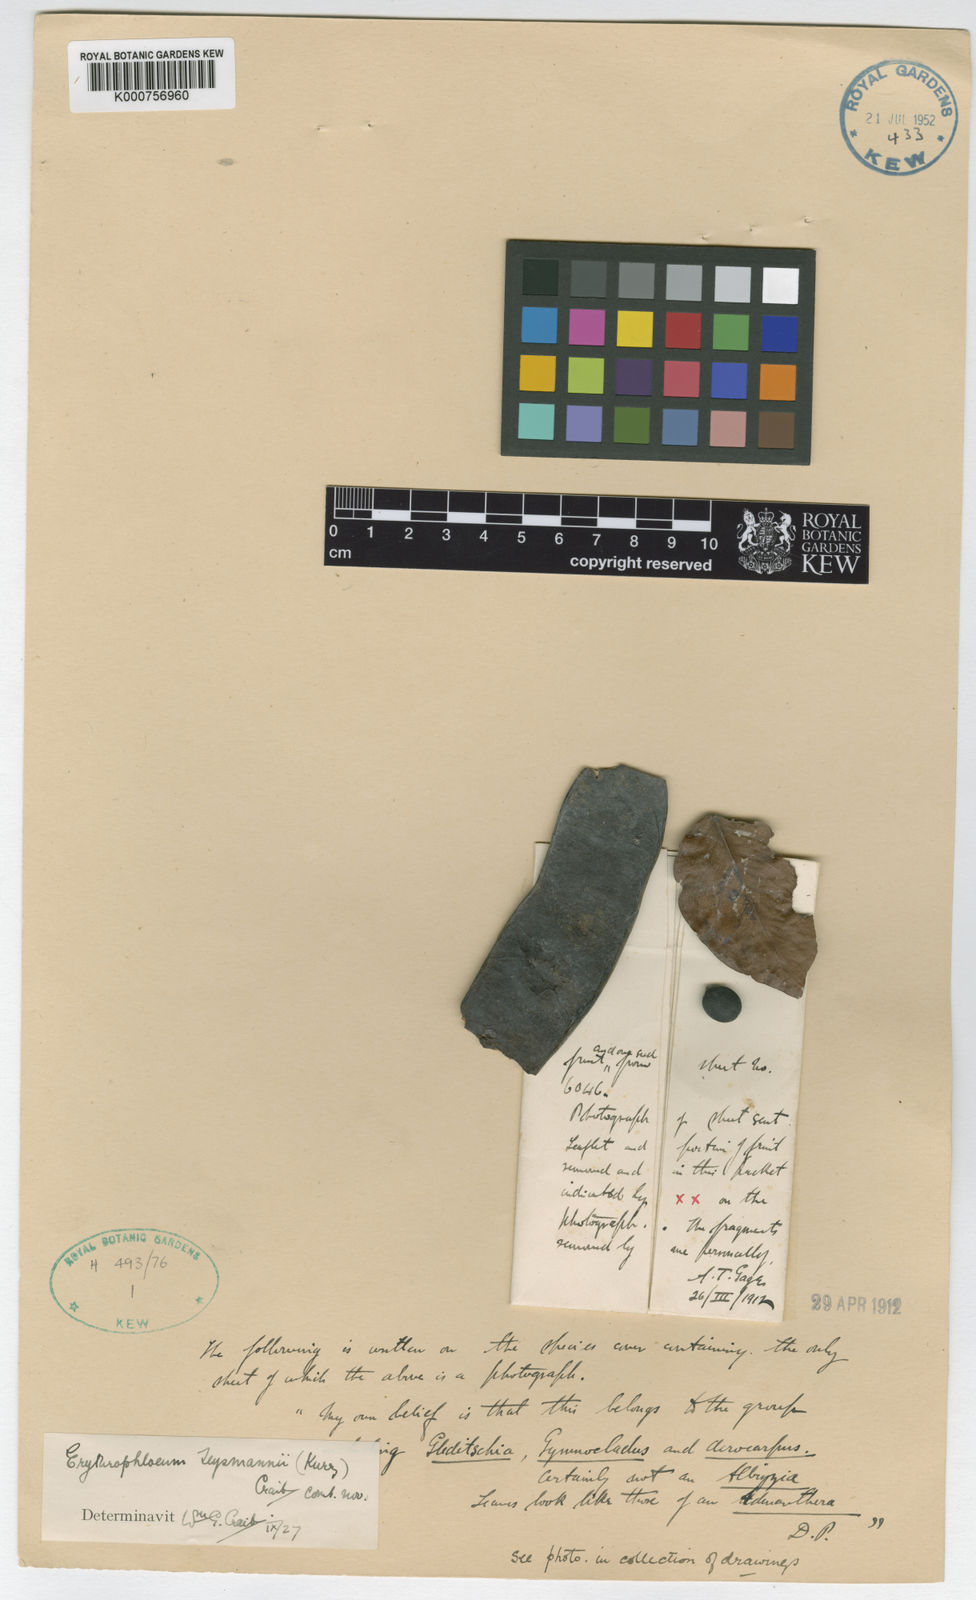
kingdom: Plantae
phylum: Tracheophyta
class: Magnoliopsida
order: Fabales
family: Fabaceae
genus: Erythrophleum
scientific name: Erythrophleum teysmannii
